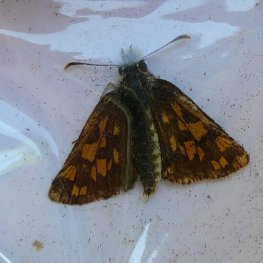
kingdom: Animalia
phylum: Arthropoda
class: Insecta
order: Lepidoptera
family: Hesperiidae
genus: Carterocephalus
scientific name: Carterocephalus palaemon
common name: Chequered Skipper
